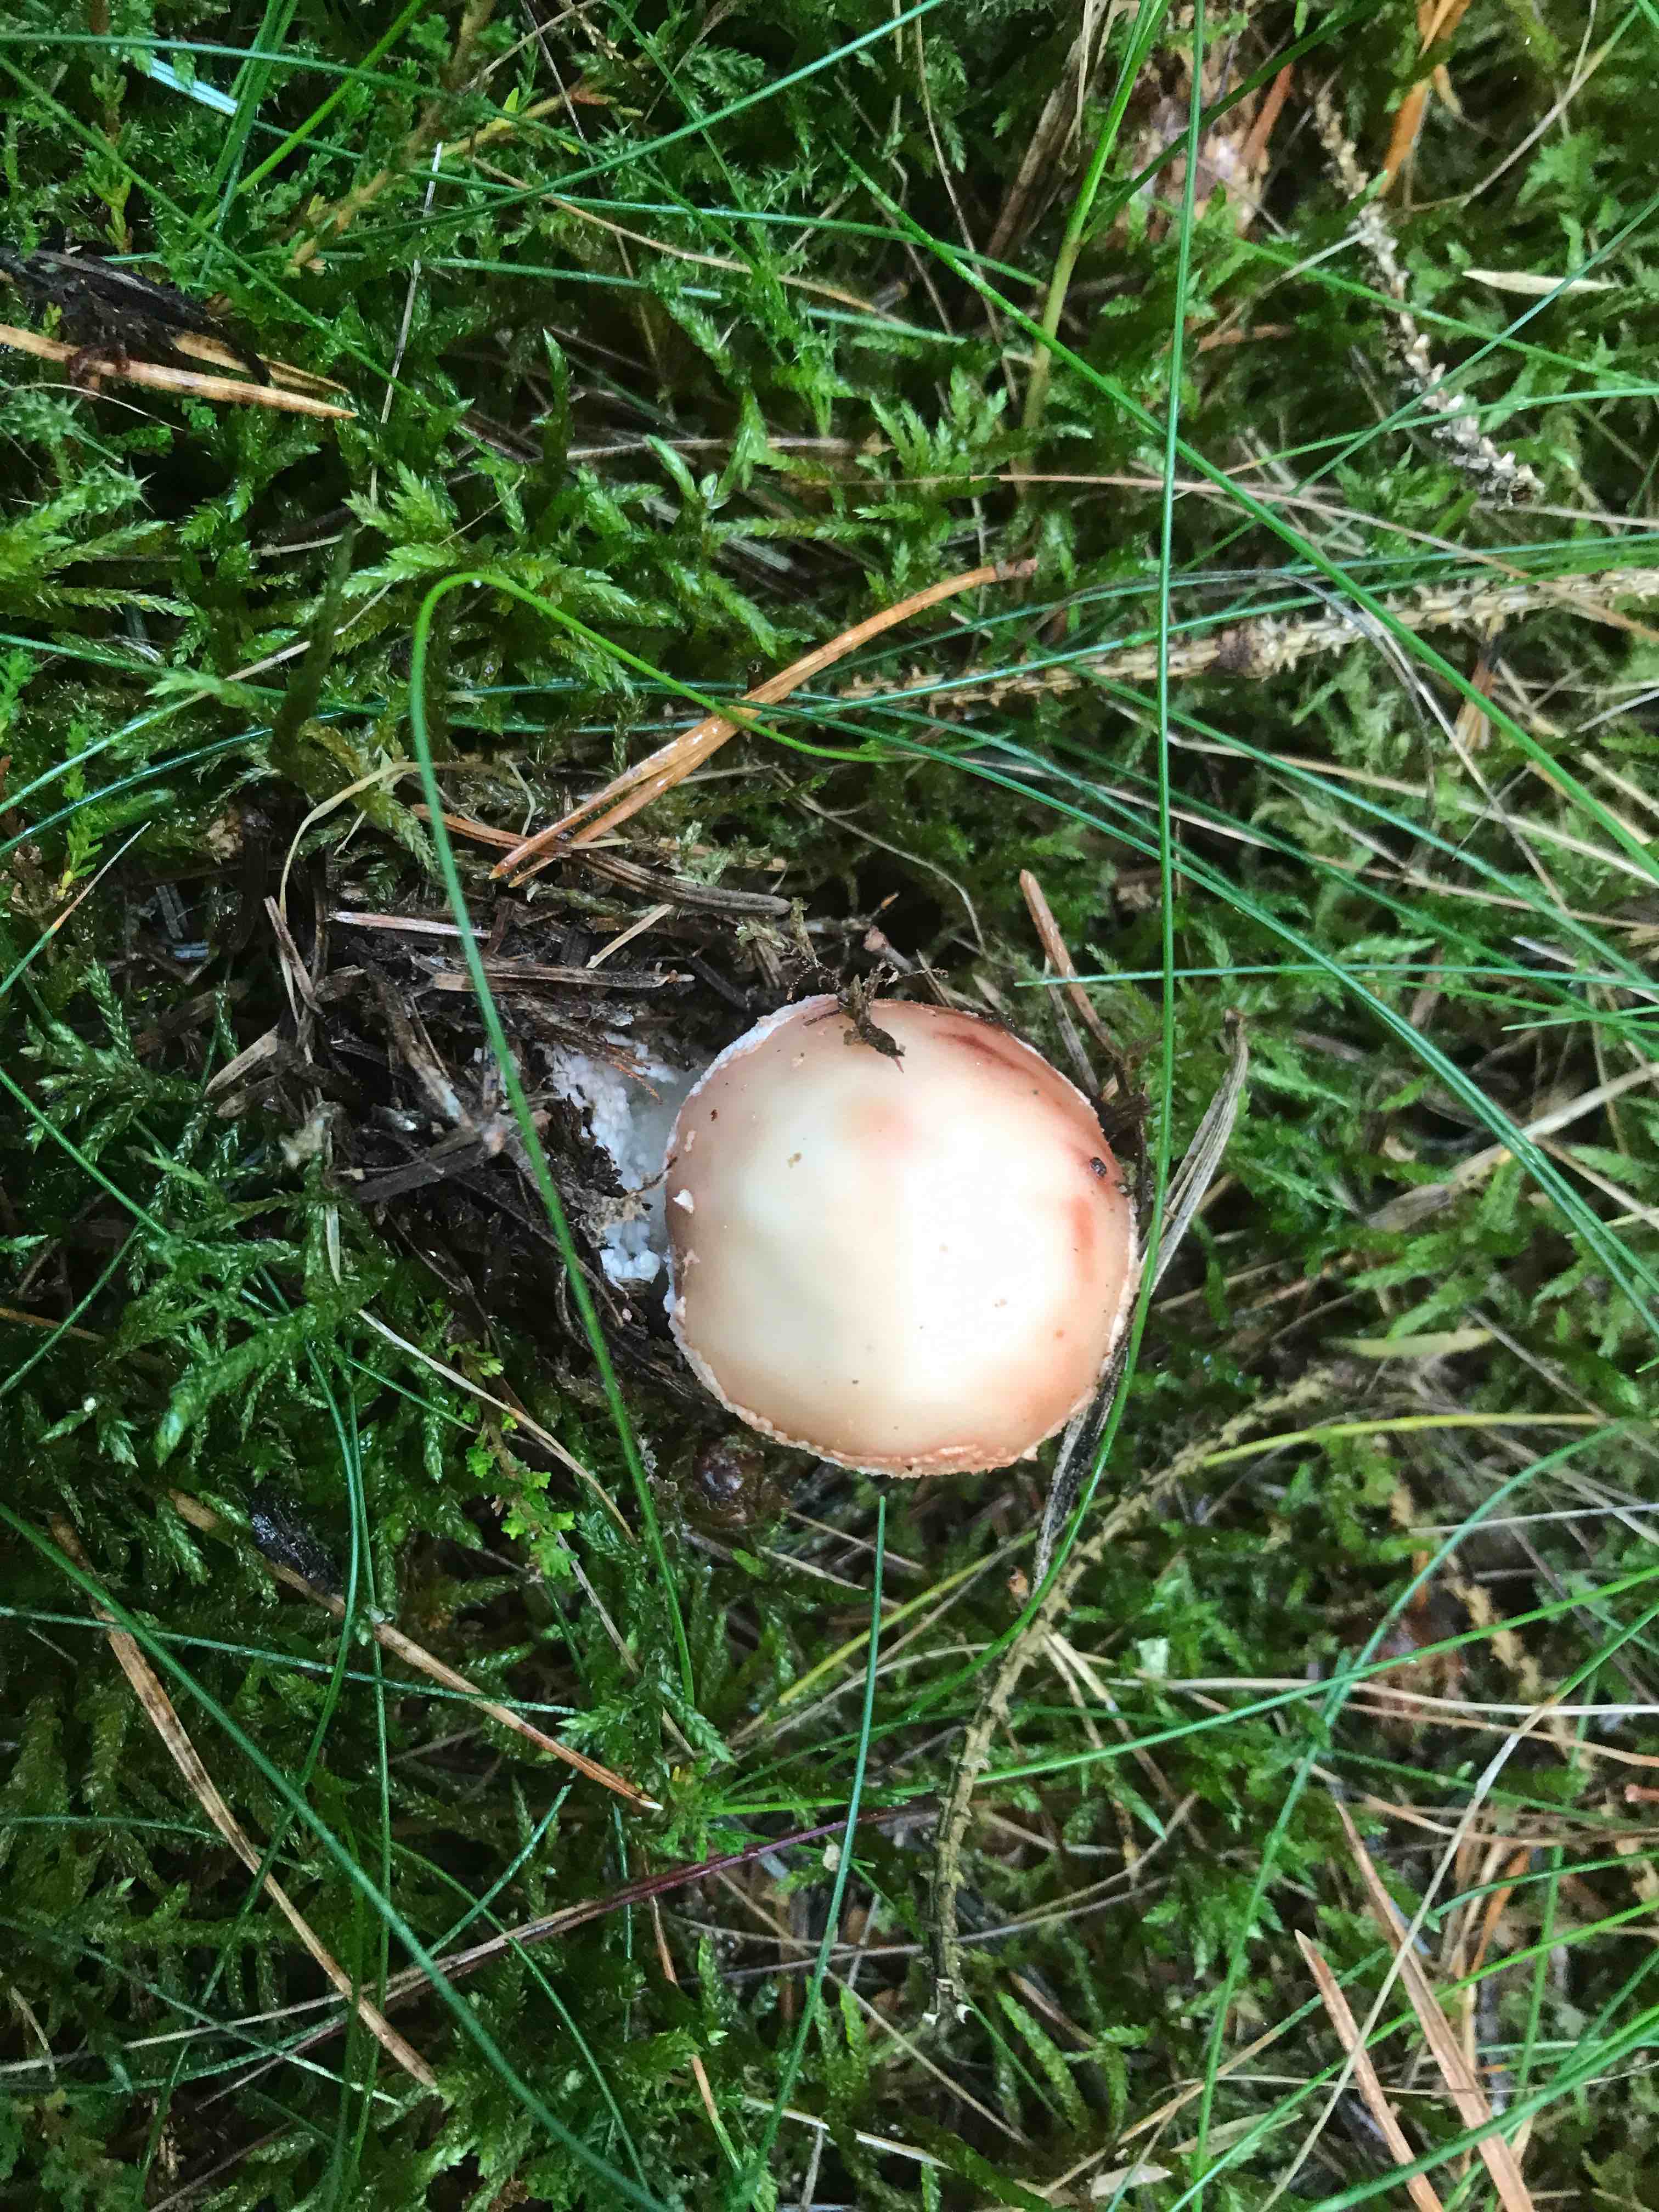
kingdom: Fungi
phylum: Basidiomycota
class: Agaricomycetes
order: Agaricales
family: Amanitaceae
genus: Amanita
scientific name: Amanita rubescens
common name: rødmende fluesvamp
